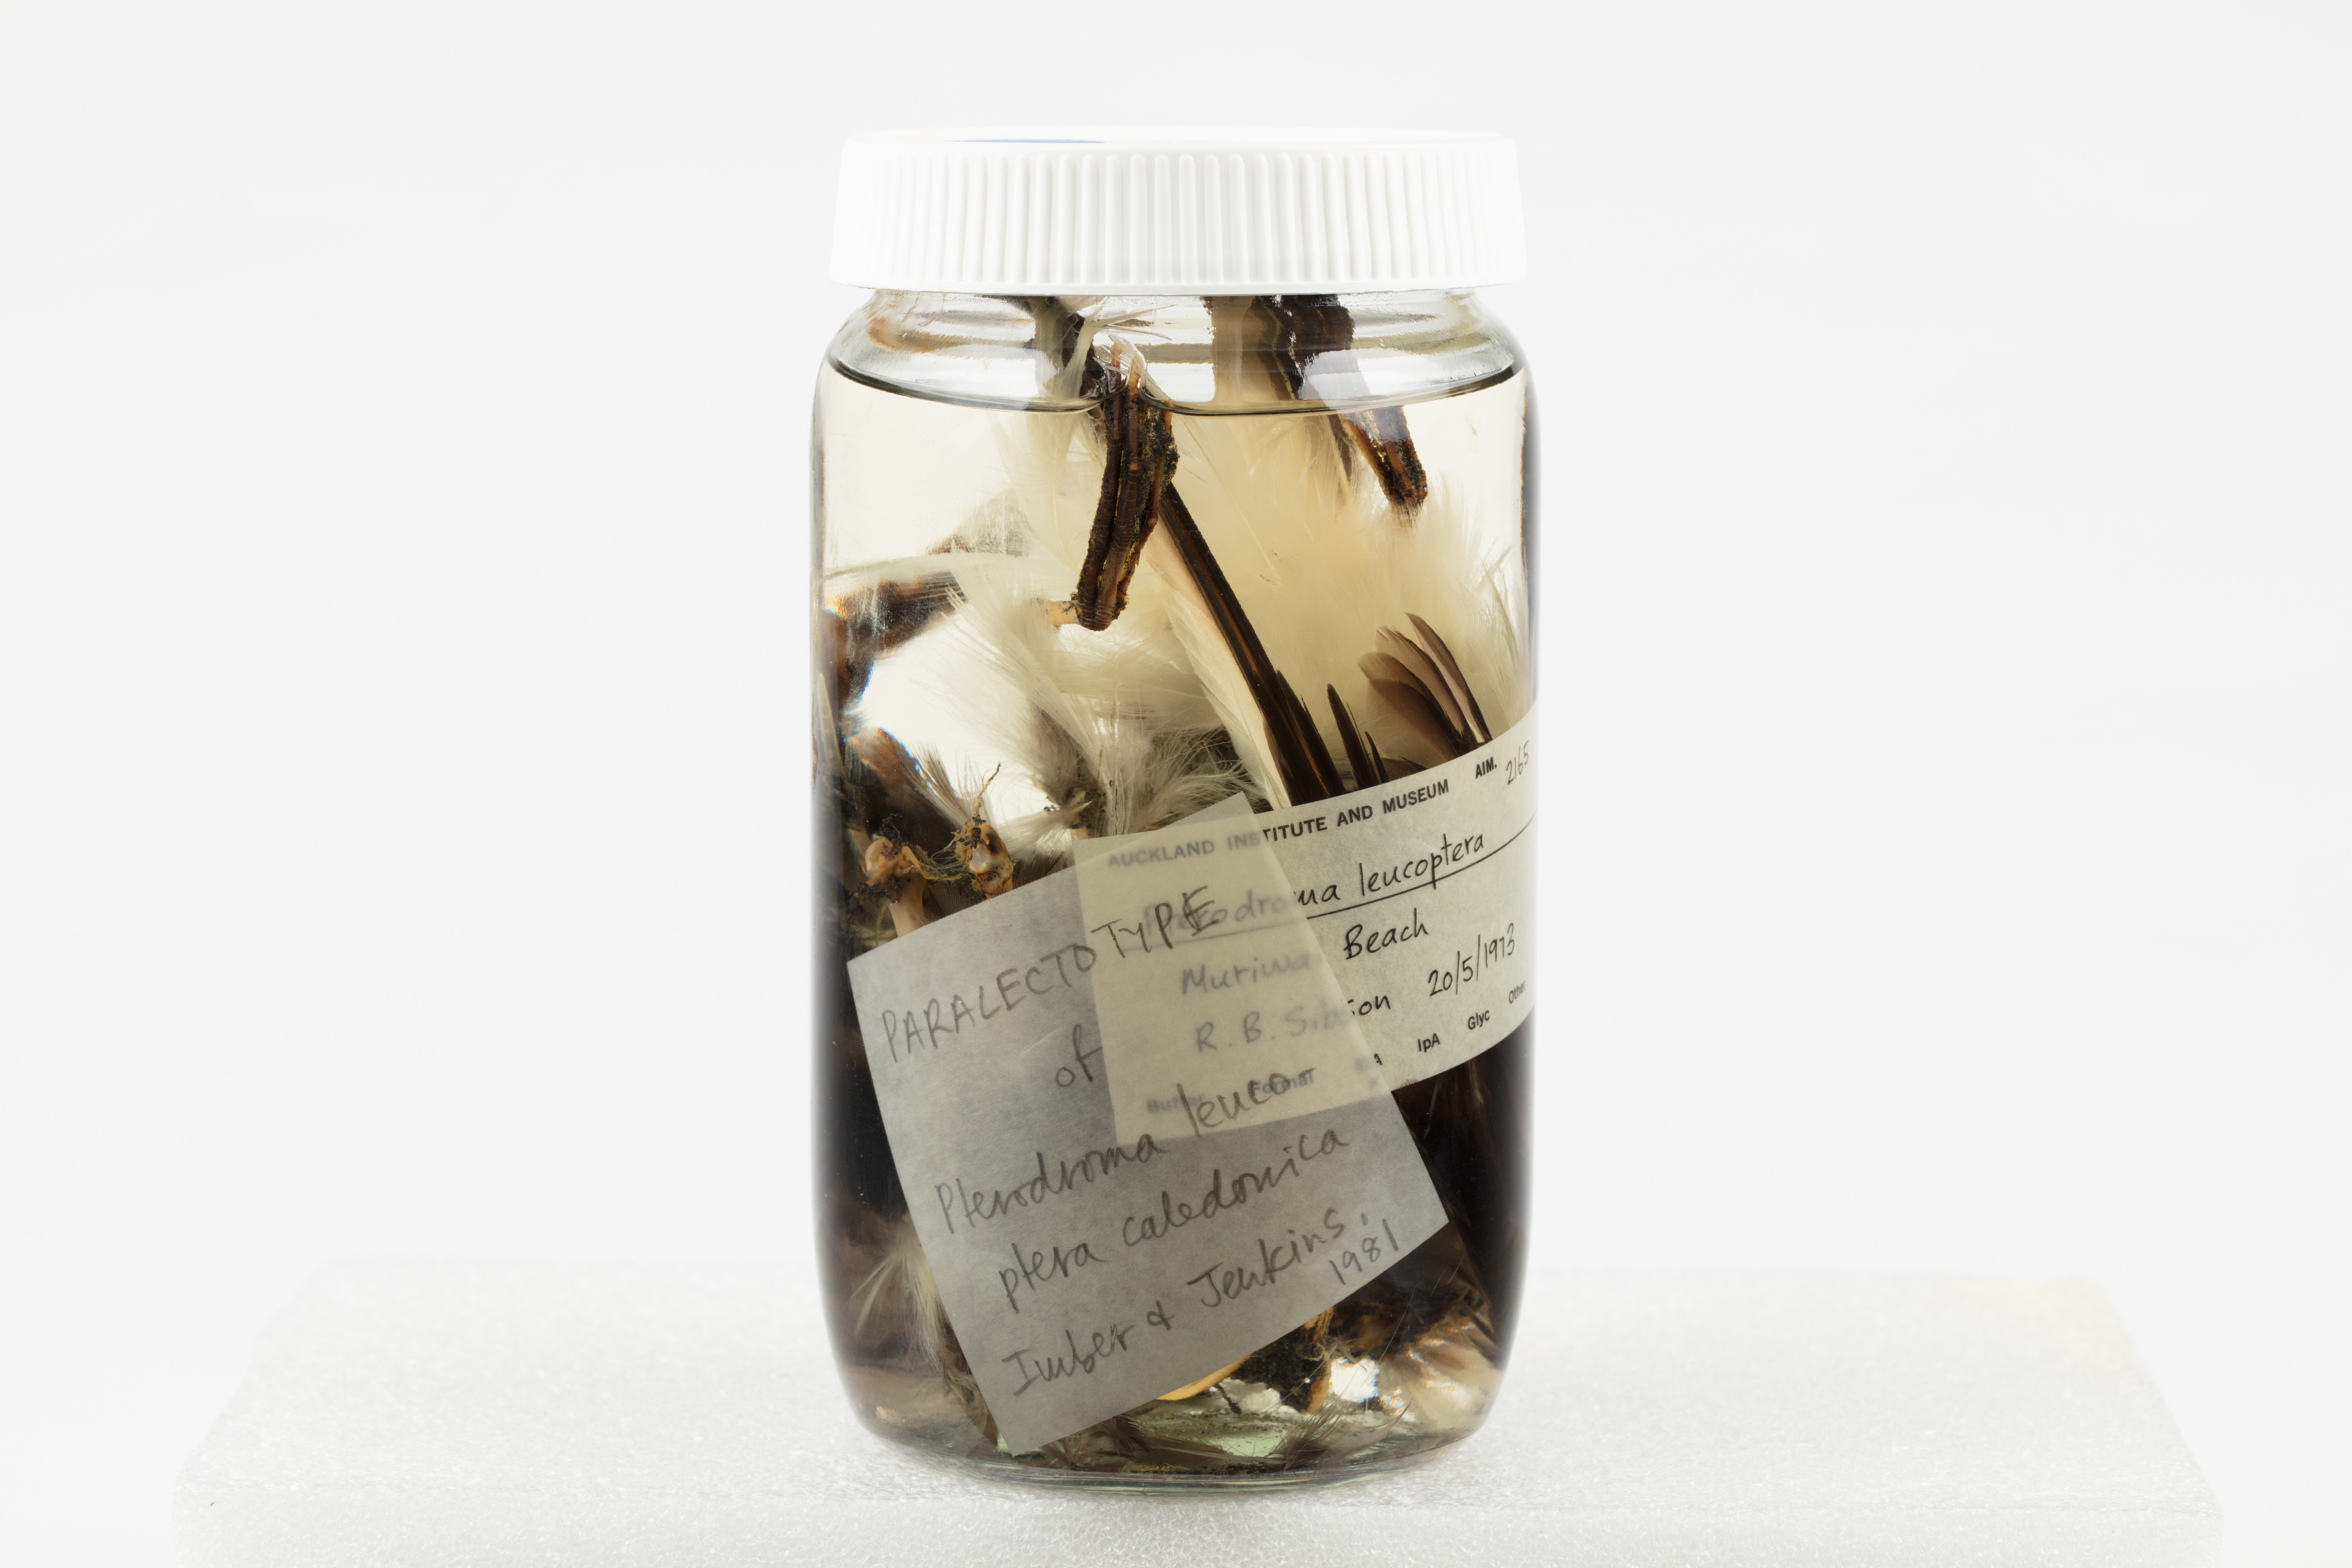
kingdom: Animalia
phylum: Chordata
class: Aves
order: Procellariiformes
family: Procellariidae
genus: Pterodroma
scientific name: Pterodroma leucoptera
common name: Gould's petrel
